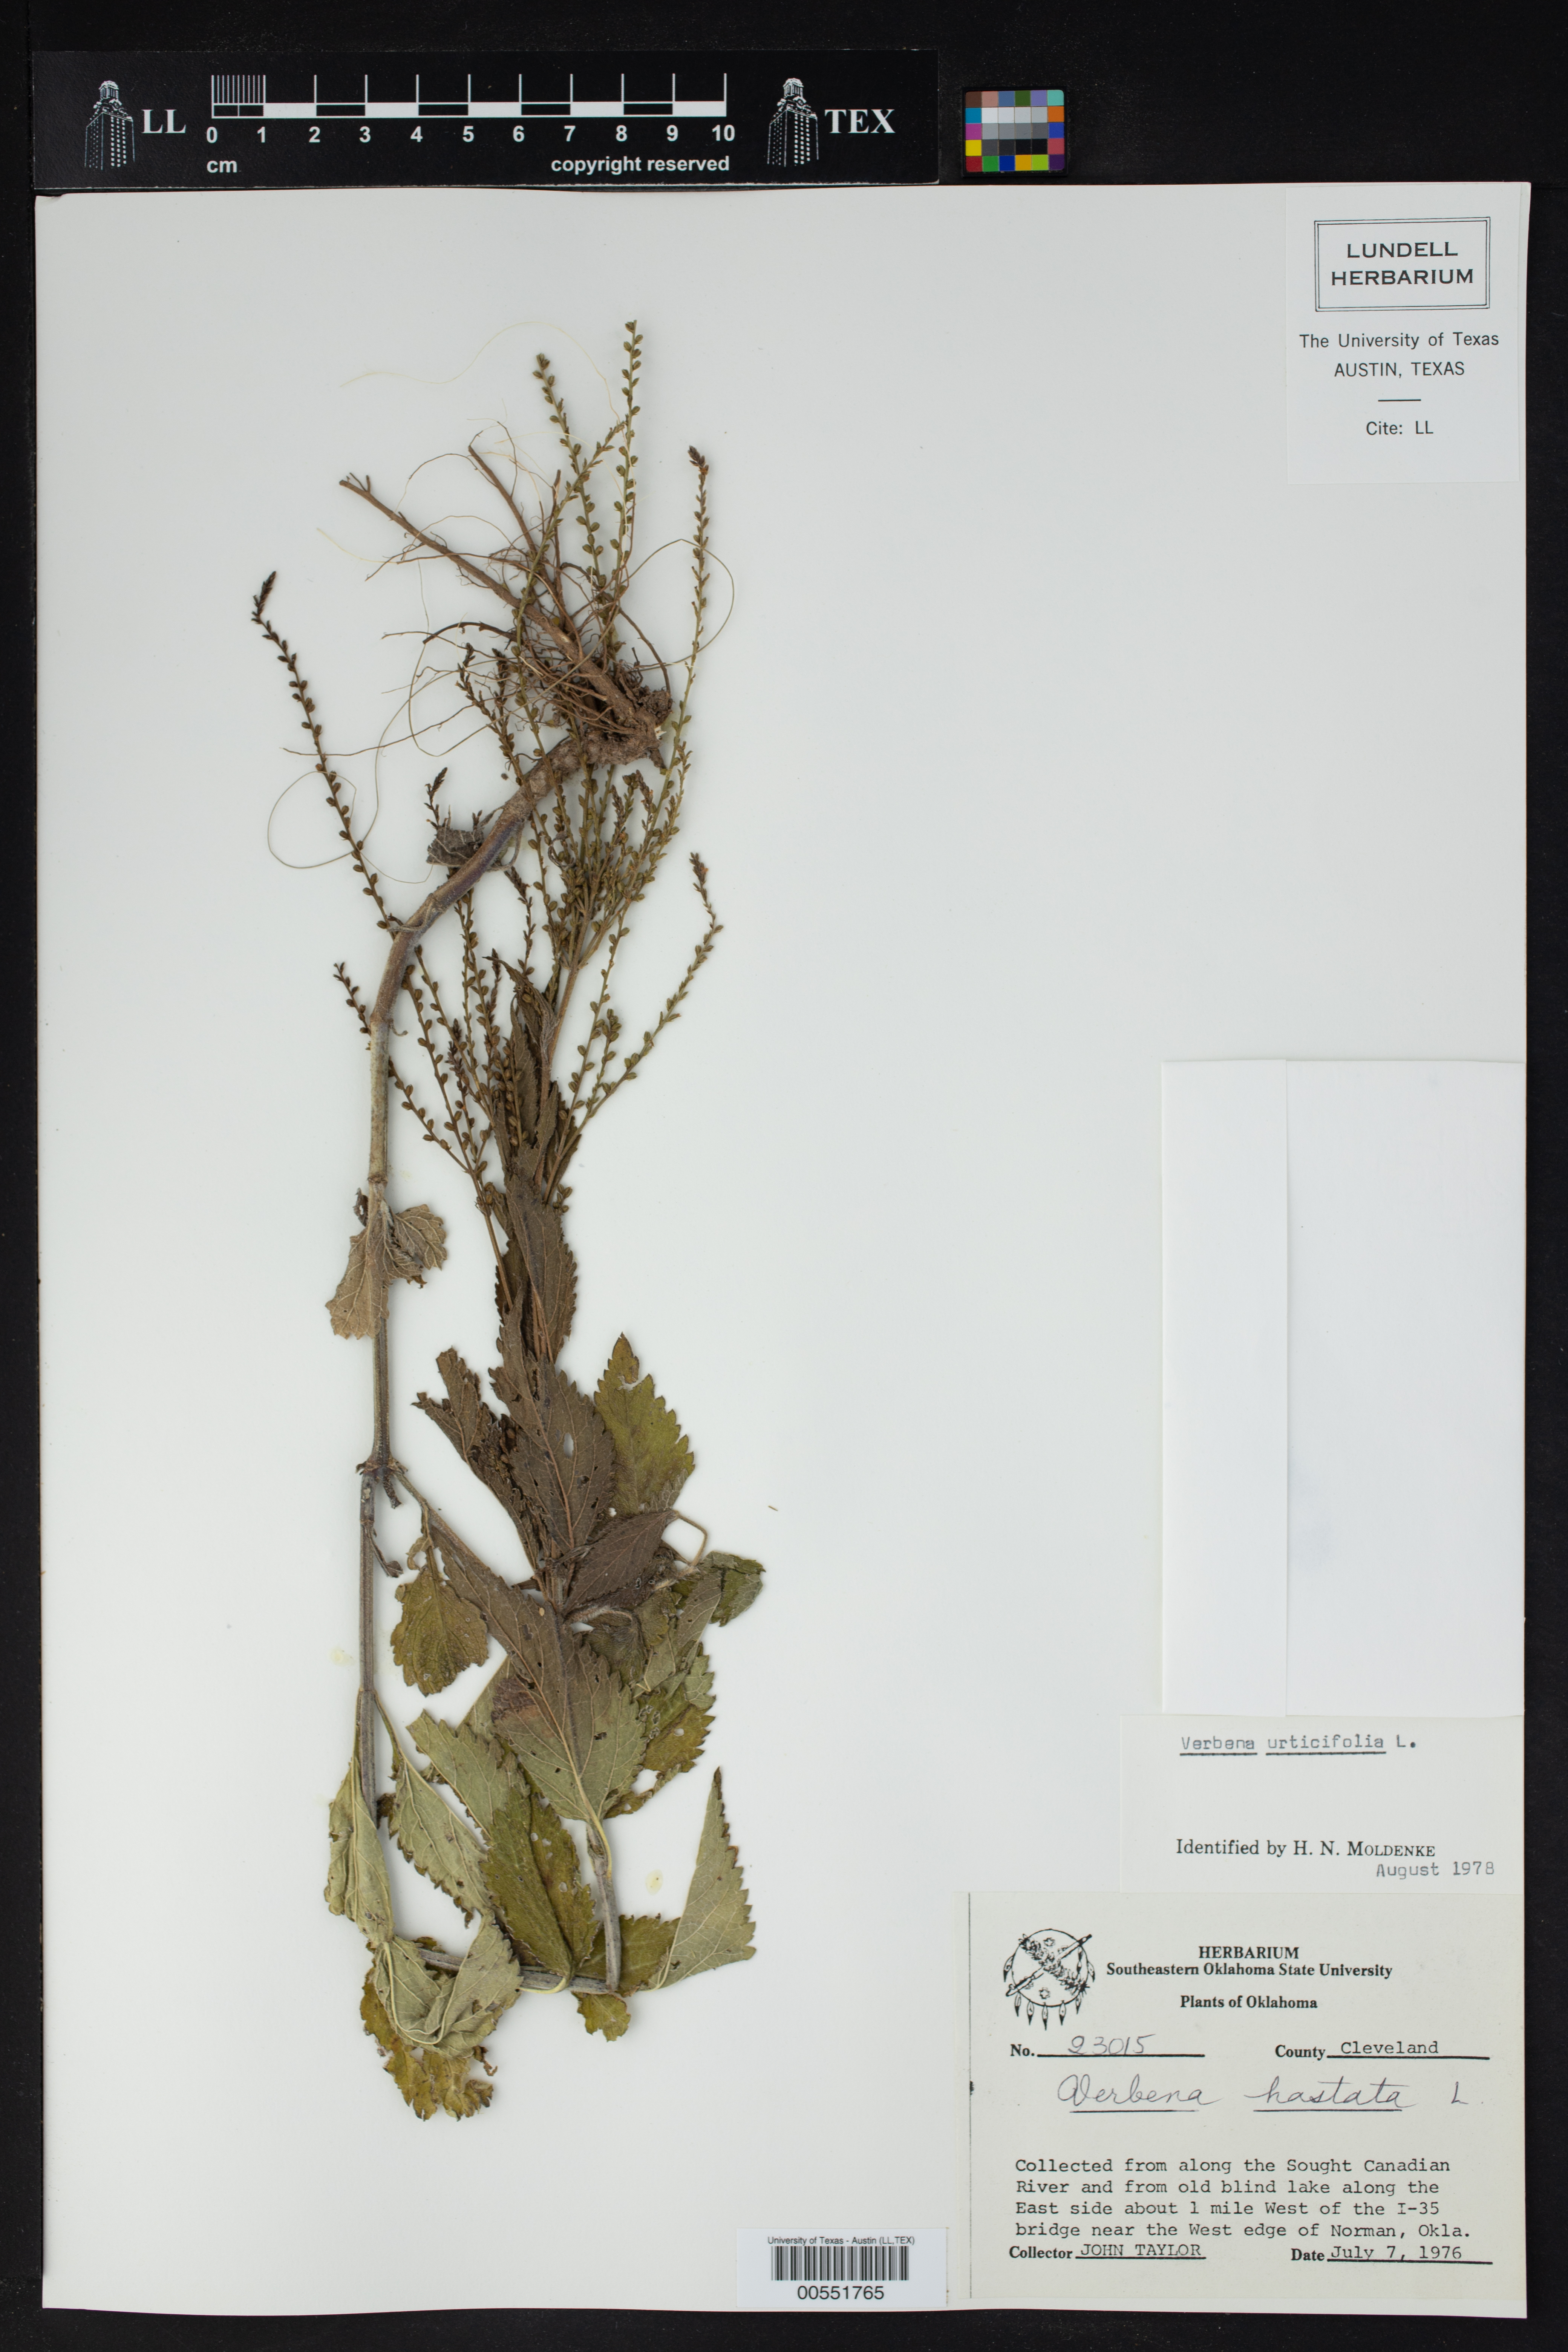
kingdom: Plantae
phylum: Tracheophyta
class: Magnoliopsida
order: Lamiales
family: Verbenaceae
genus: Verbena
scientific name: Verbena urticifolia
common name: Nettle-leaved vervain
